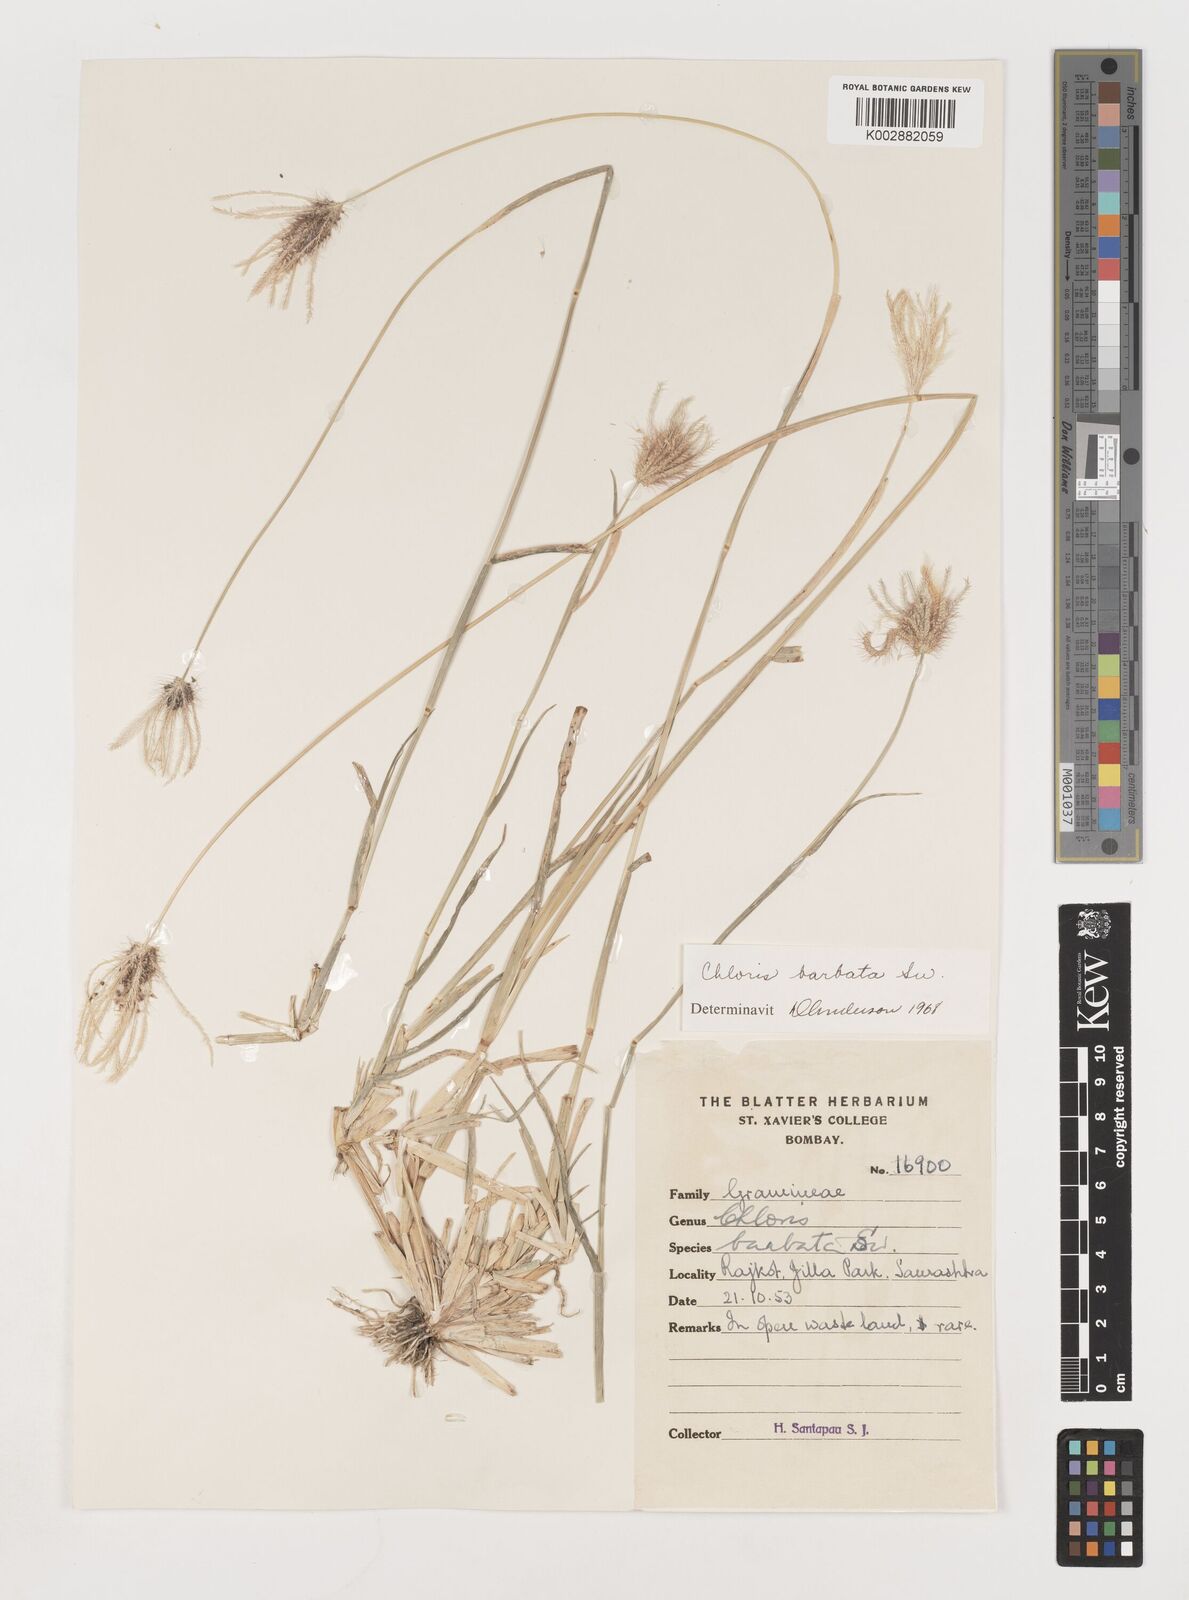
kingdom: Plantae
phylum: Tracheophyta
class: Liliopsida
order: Poales
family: Poaceae
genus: Chloris
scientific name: Chloris barbata
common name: Swollen fingergrass
